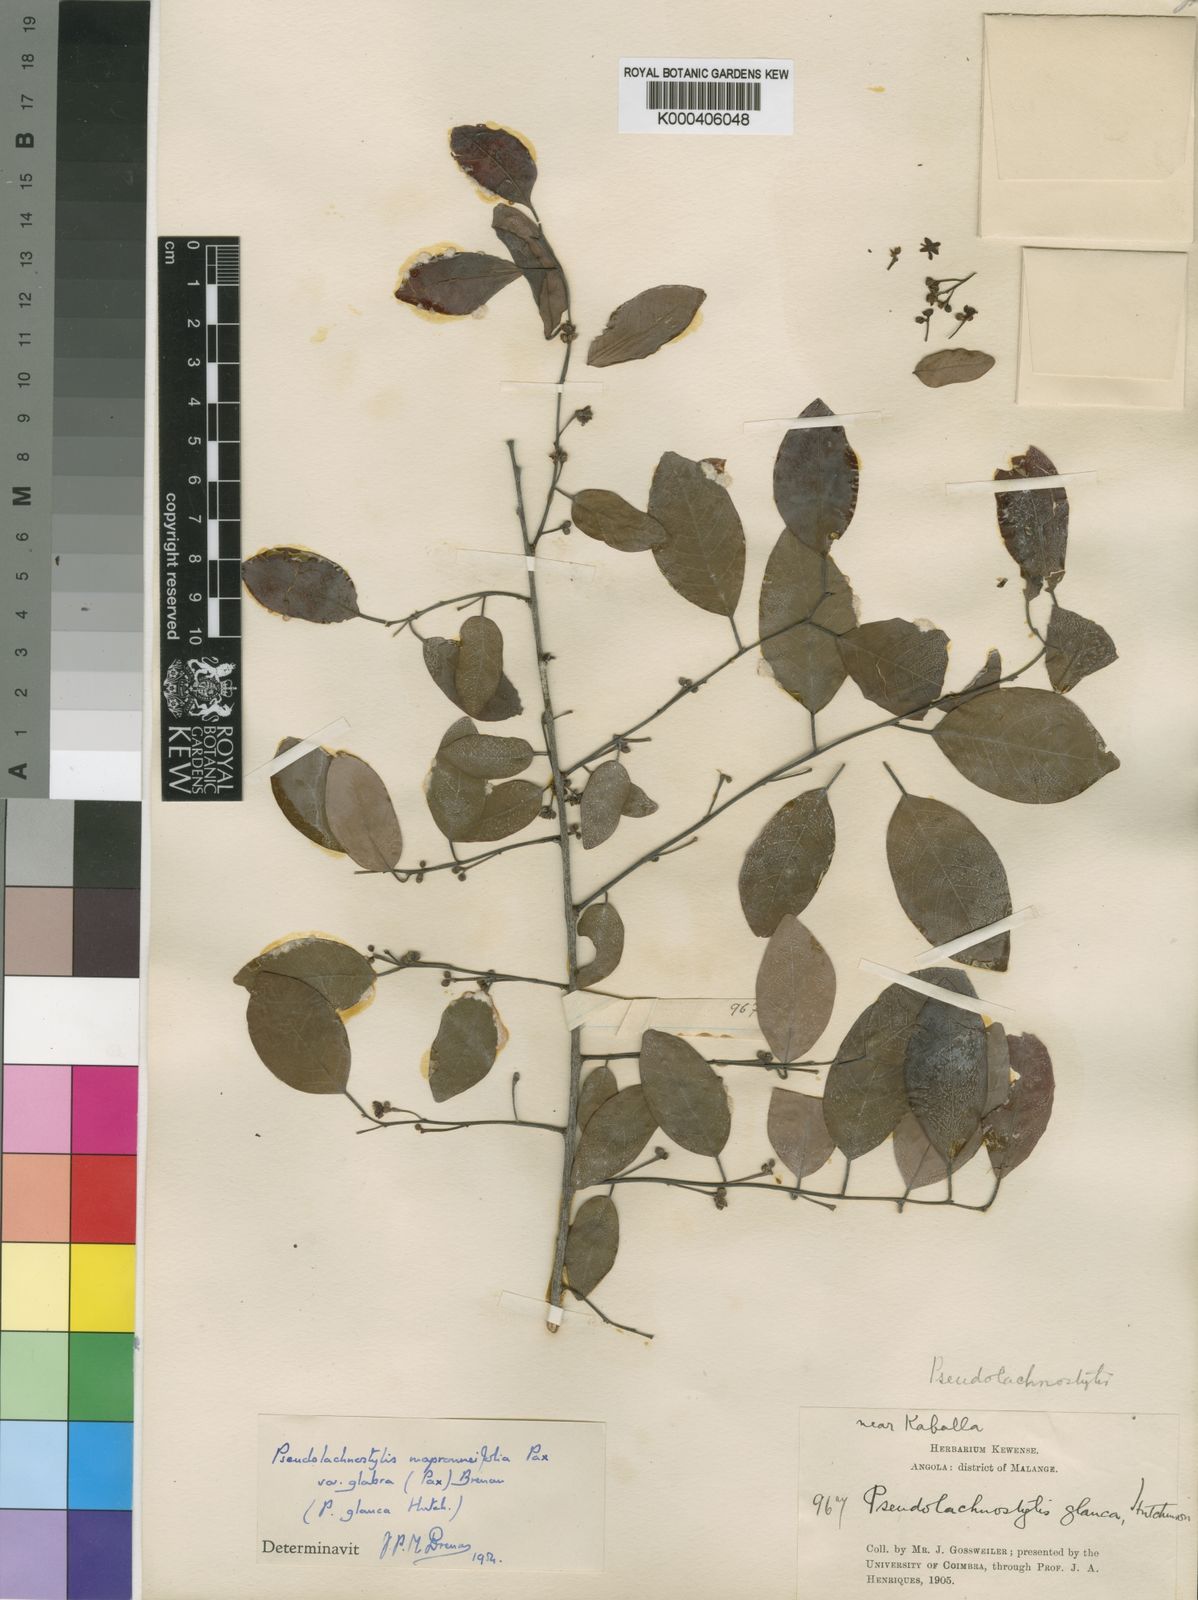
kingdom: Plantae
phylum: Tracheophyta
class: Magnoliopsida
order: Malpighiales
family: Phyllanthaceae
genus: Pseudolachnostylis
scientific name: Pseudolachnostylis maprouneifolia
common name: Kudu berry
